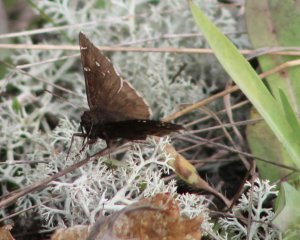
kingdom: Animalia
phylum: Arthropoda
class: Insecta
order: Lepidoptera
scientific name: Lepidoptera
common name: Butterflies
